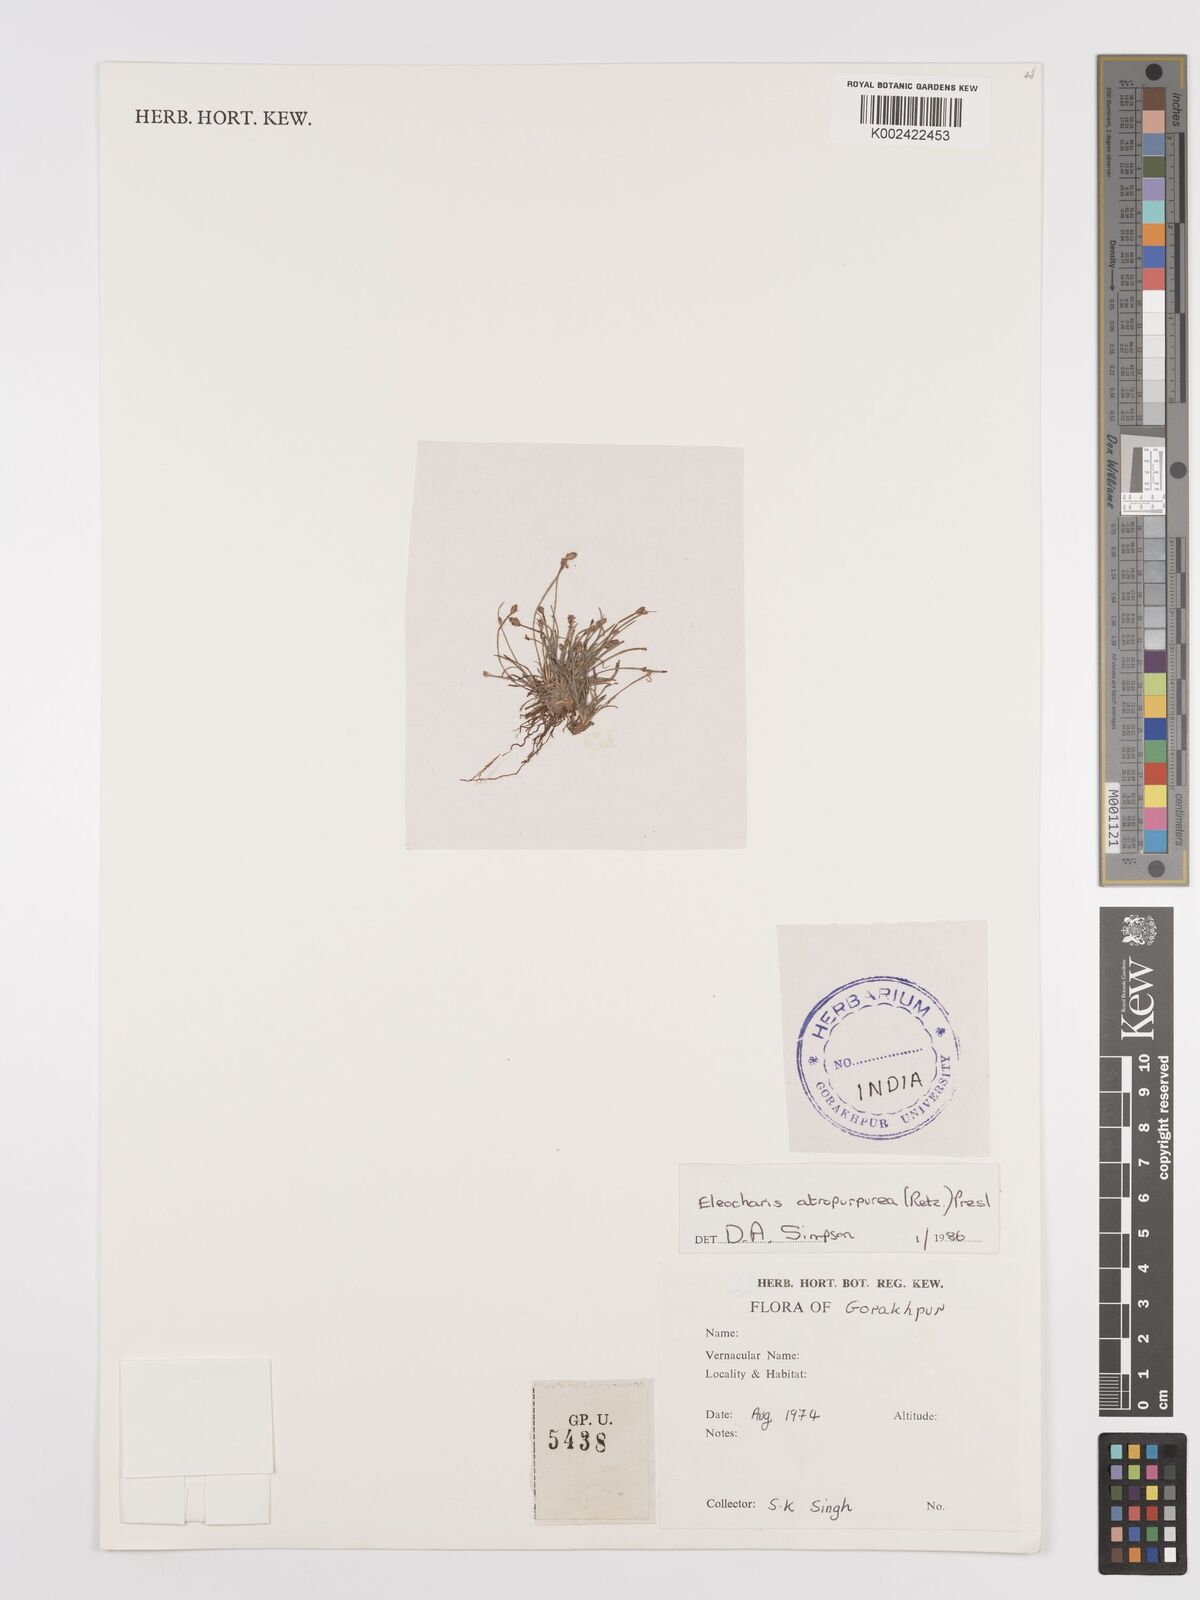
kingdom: Plantae
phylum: Tracheophyta
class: Liliopsida
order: Poales
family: Cyperaceae
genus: Eleocharis
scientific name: Eleocharis atropurpurea
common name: Purple spikerush
